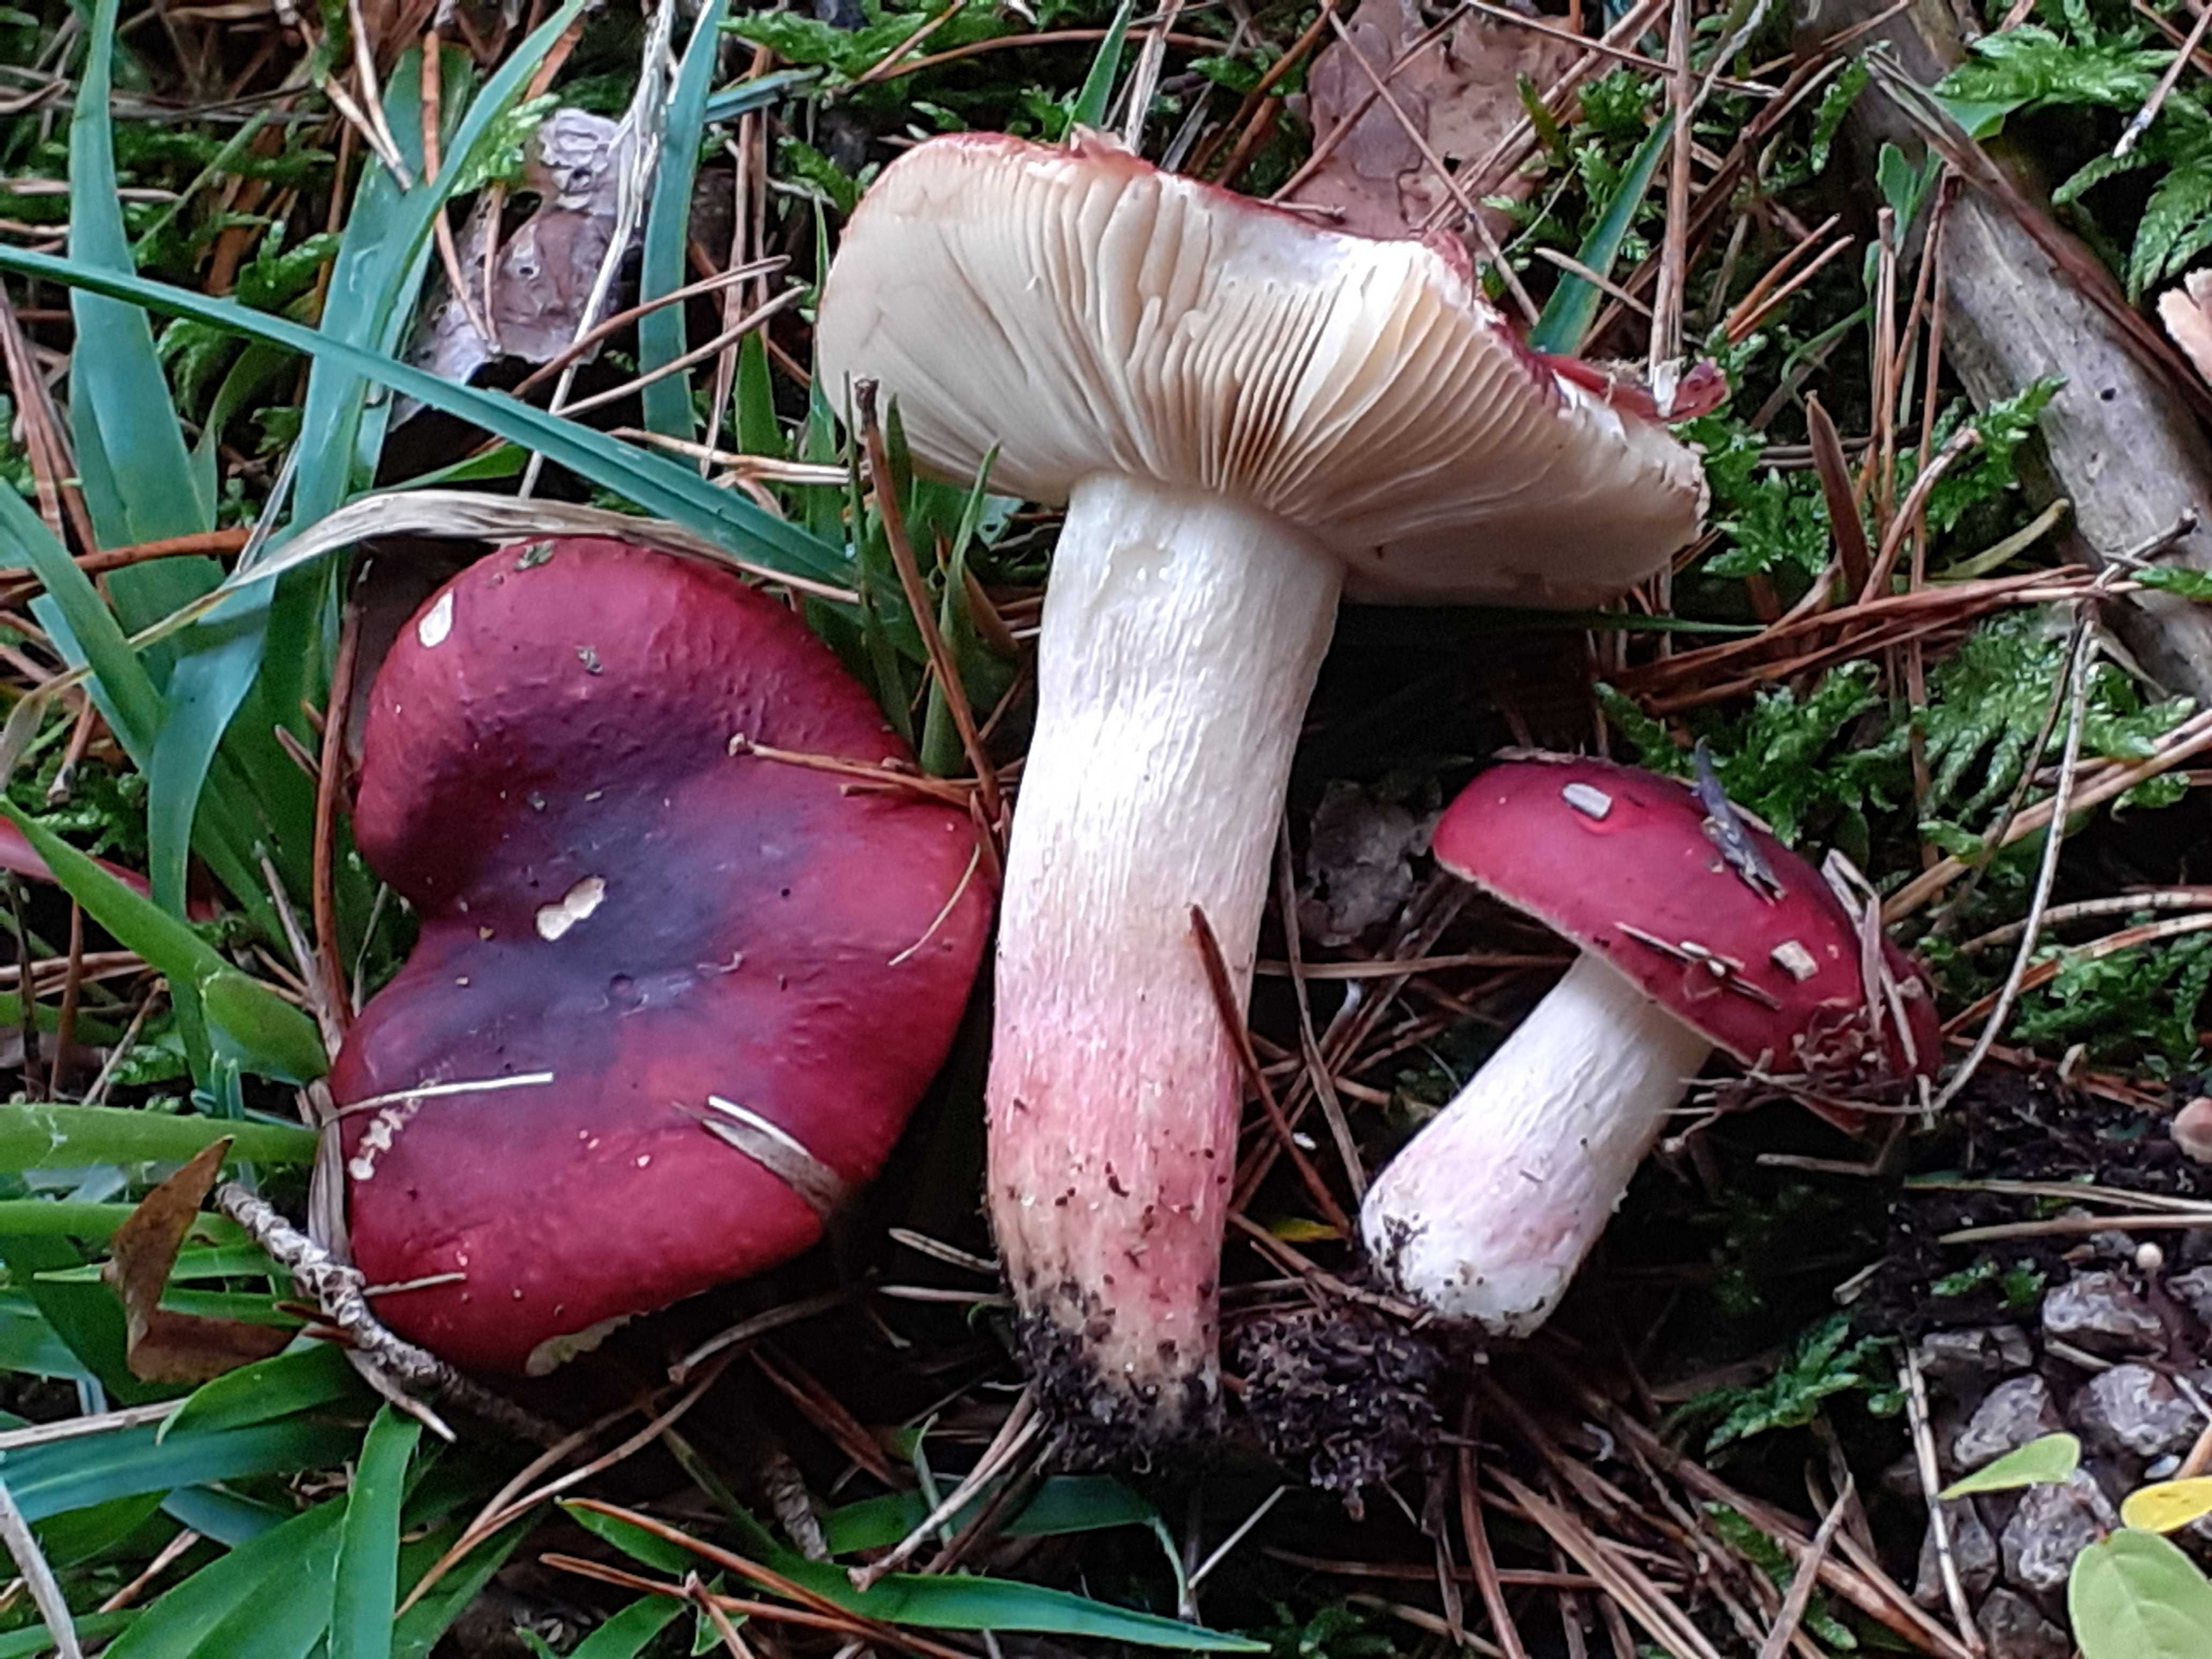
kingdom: Fungi
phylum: Basidiomycota
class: Agaricomycetes
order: Russulales
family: Russulaceae
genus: Russula
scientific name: Russula xerampelina
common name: hummer-skørhat
